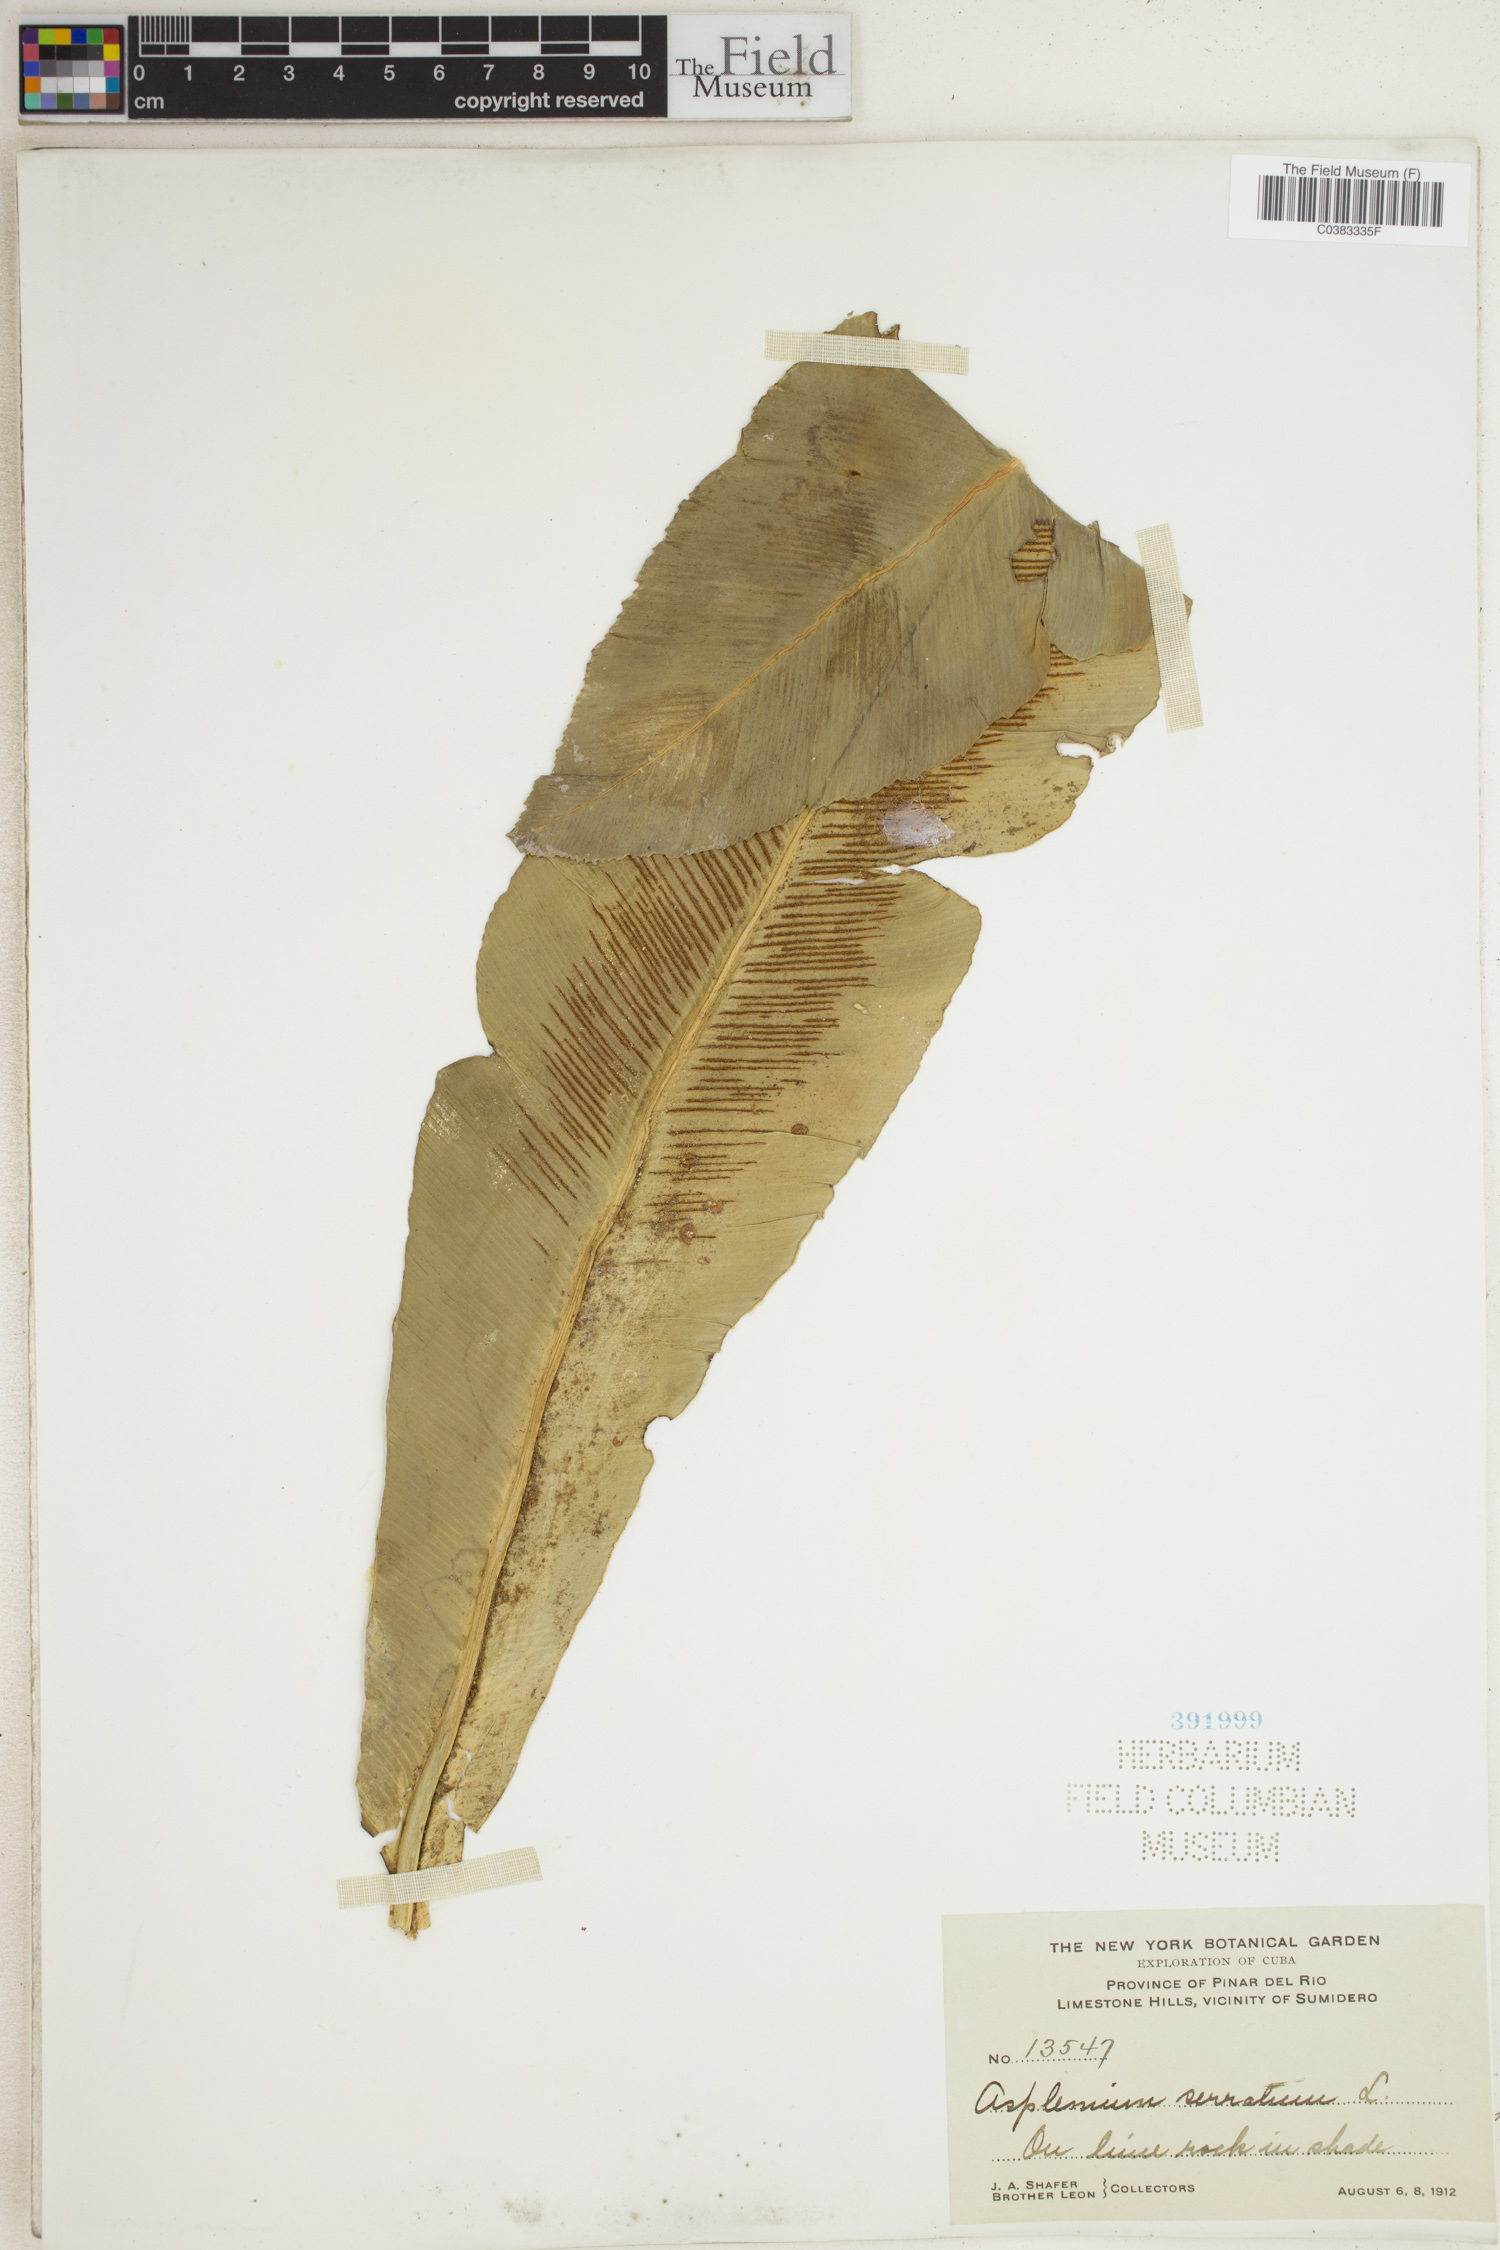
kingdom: Plantae
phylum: Tracheophyta
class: Polypodiopsida
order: Polypodiales
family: Aspleniaceae
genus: Asplenium
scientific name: Asplenium serratum
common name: Wild birdnest fern
